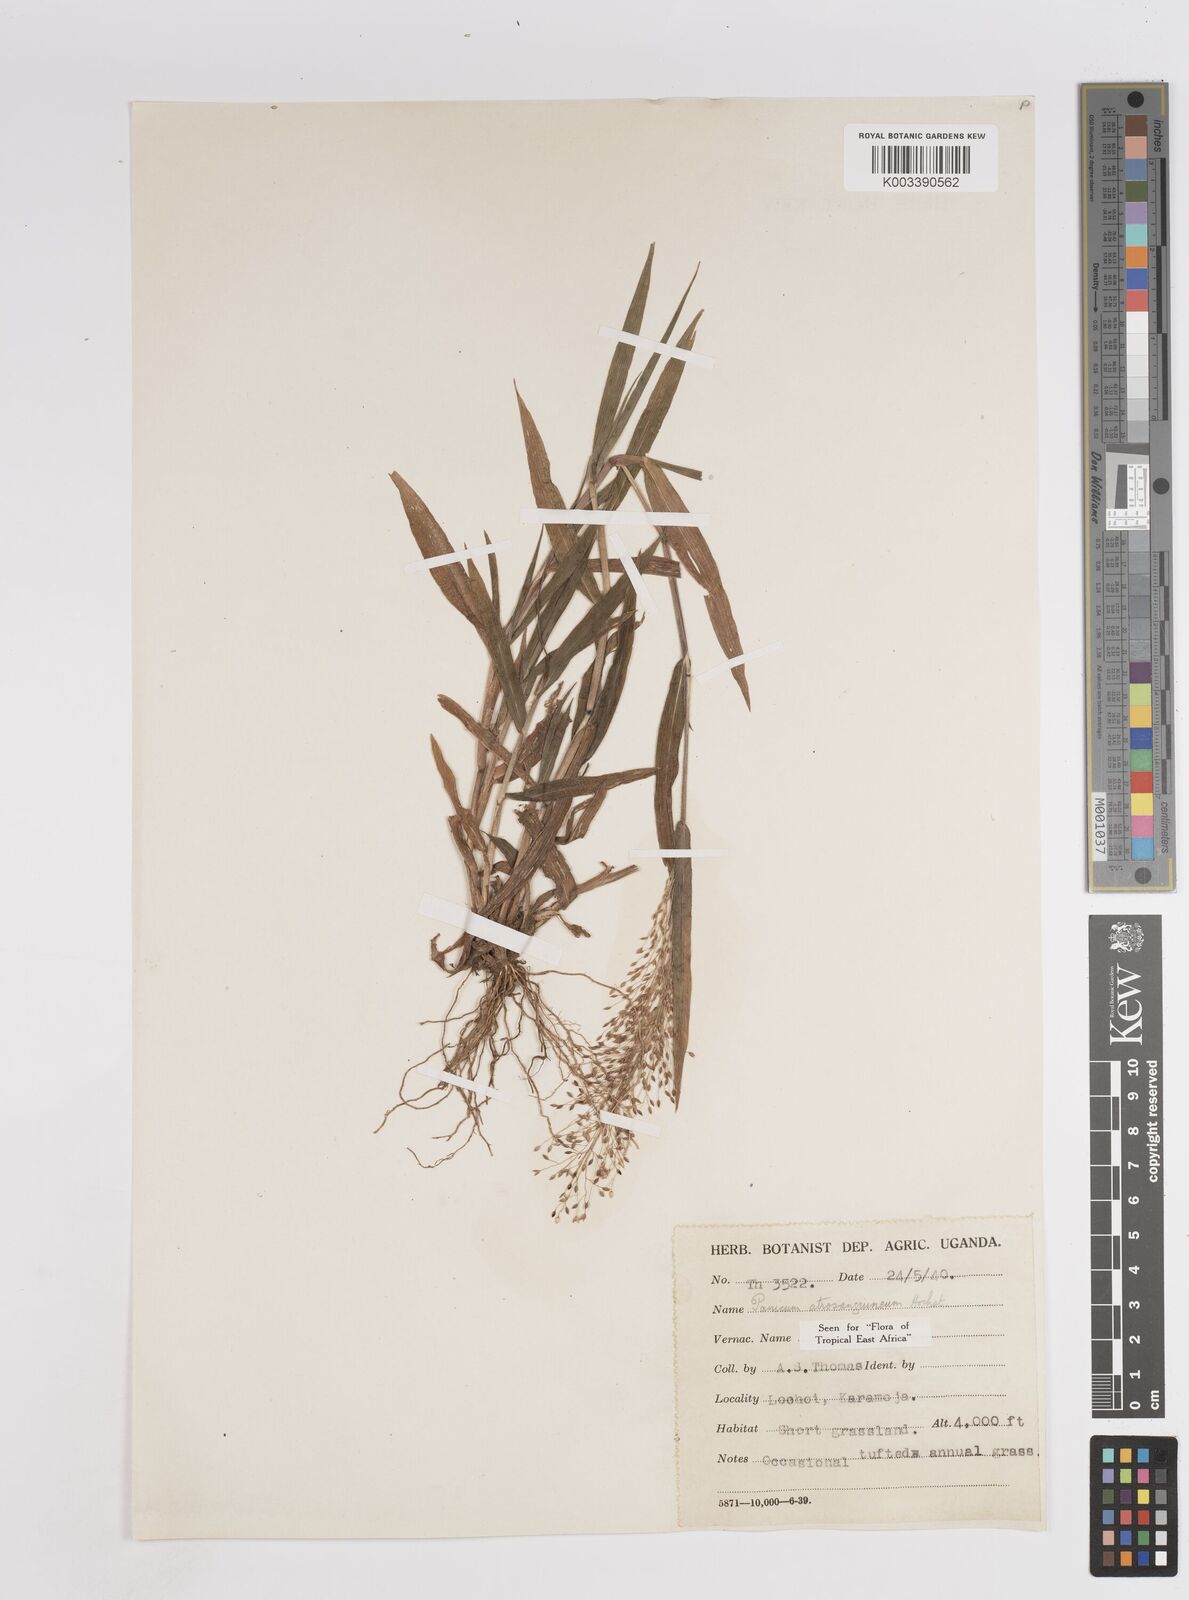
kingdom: Plantae
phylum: Tracheophyta
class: Liliopsida
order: Poales
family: Poaceae
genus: Panicum
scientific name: Panicum atrosanguineum
